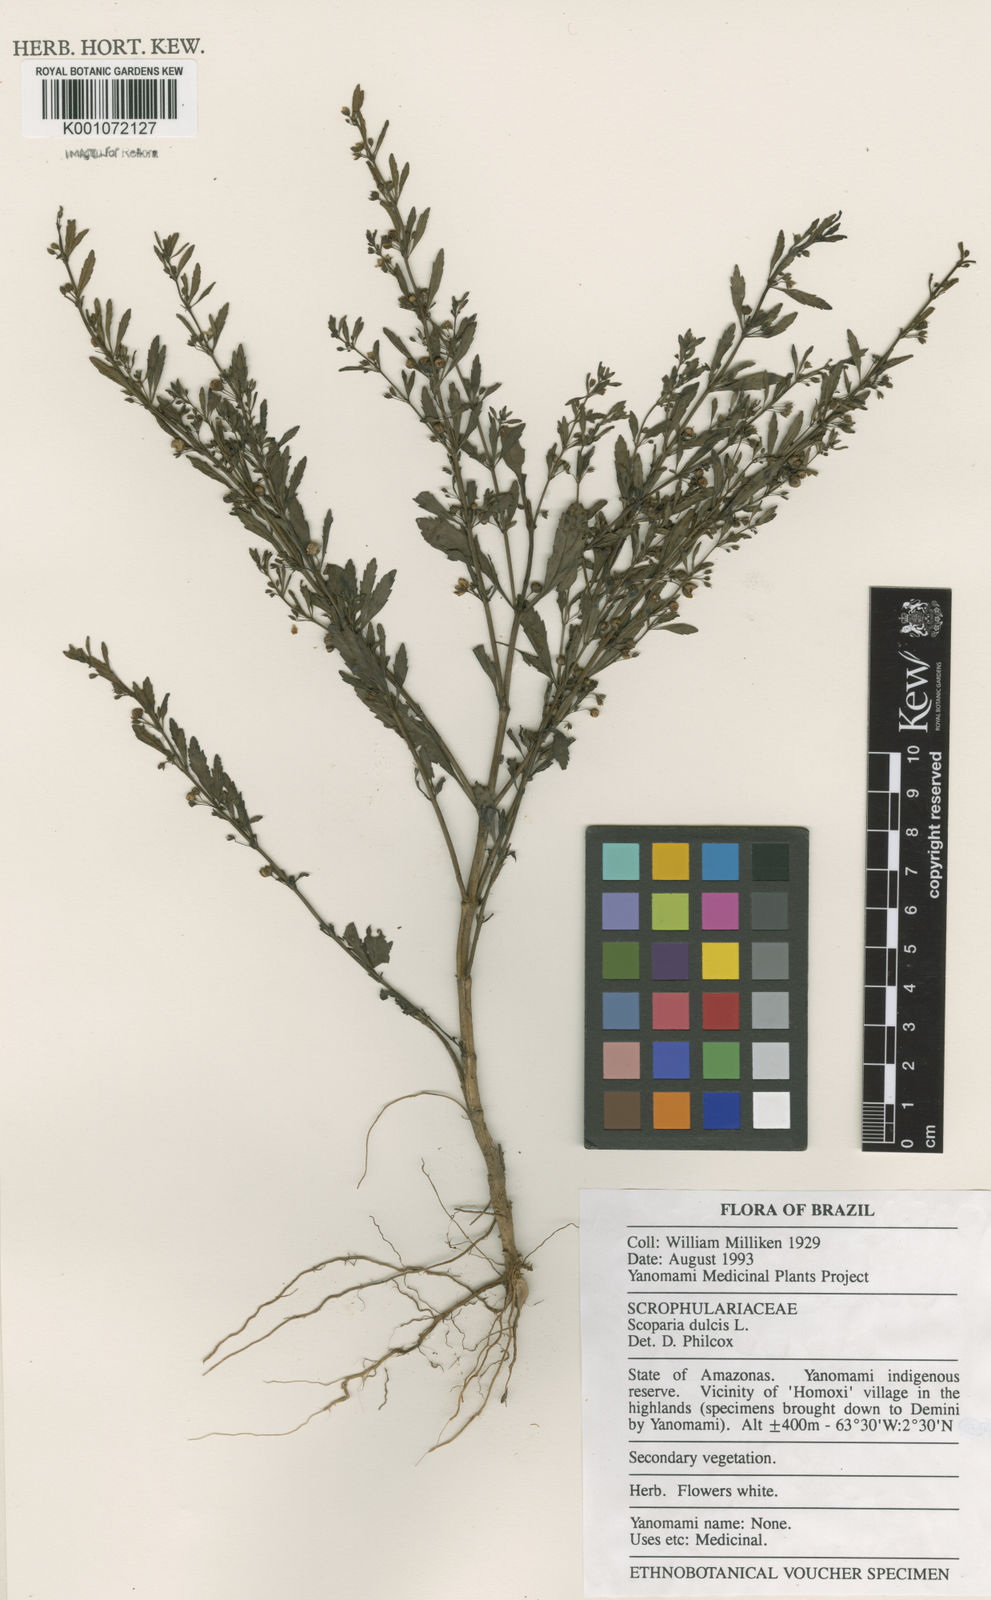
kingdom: Plantae
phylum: Tracheophyta
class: Magnoliopsida
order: Lamiales
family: Plantaginaceae
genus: Scoparia
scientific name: Scoparia dulcis
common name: Scoparia-weed
